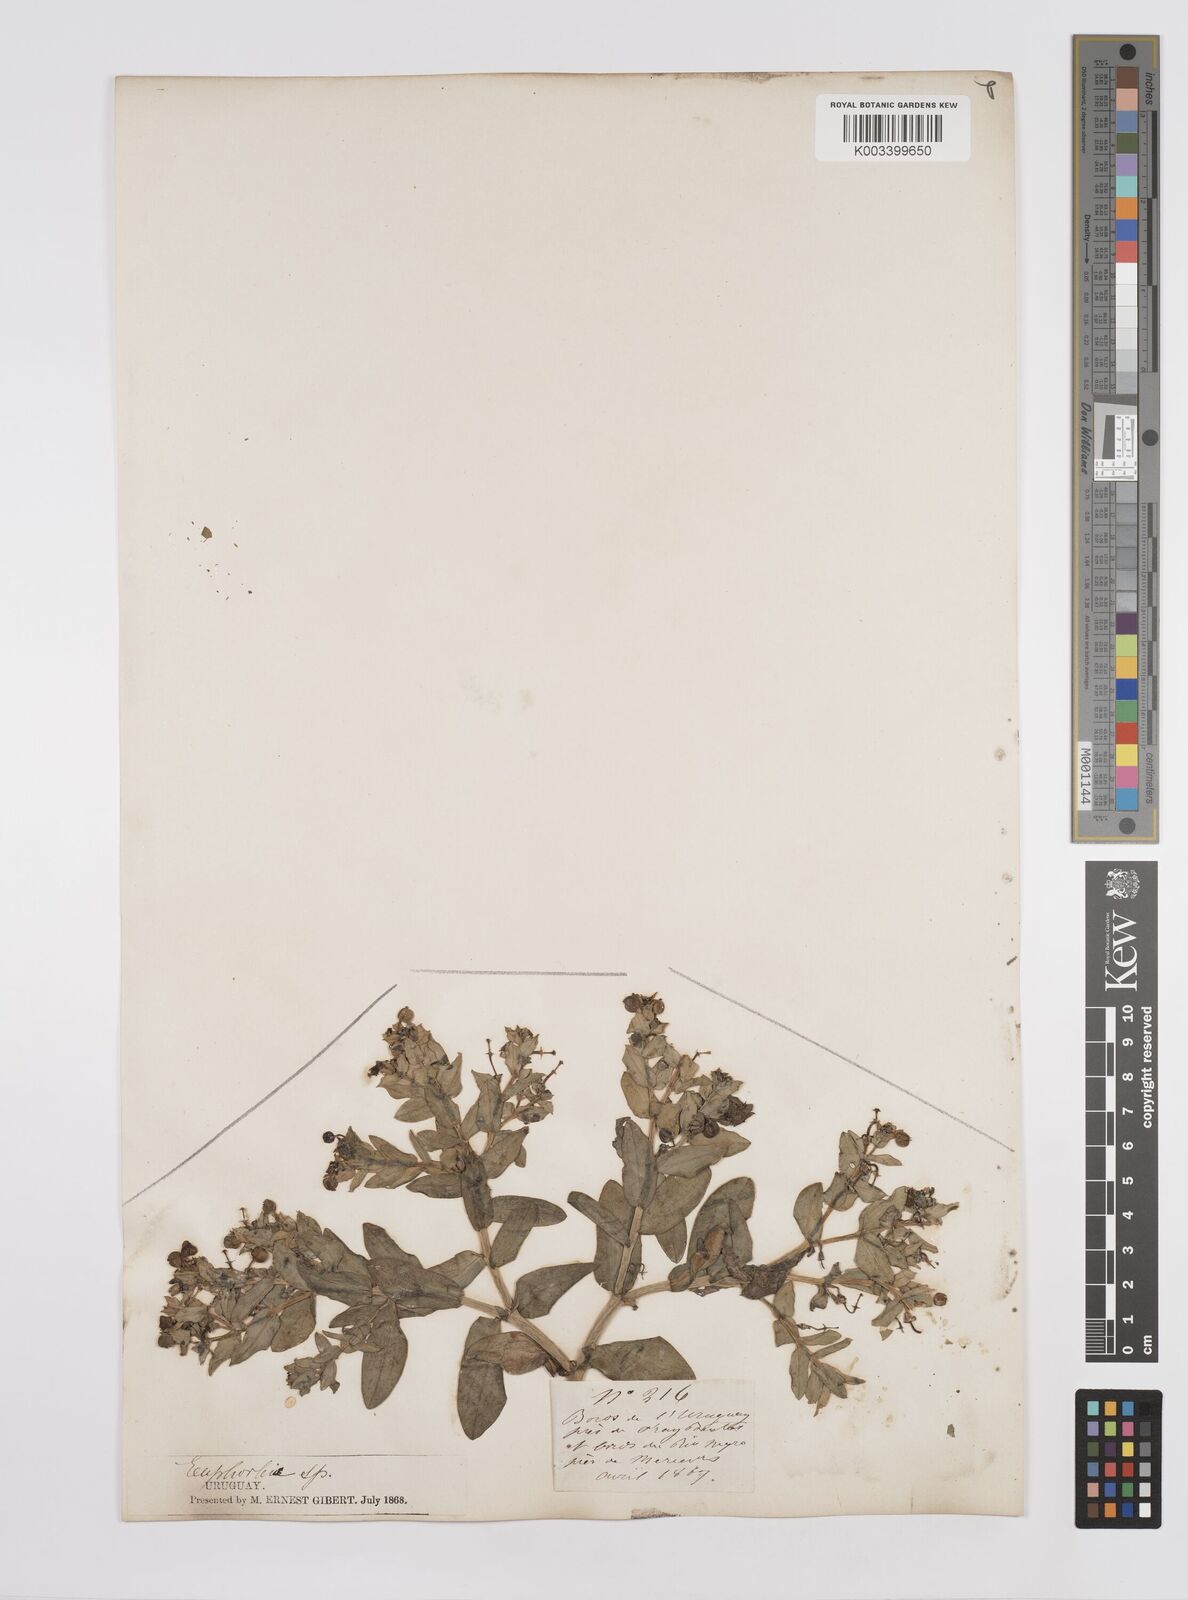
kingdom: Plantae
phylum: Tracheophyta
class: Magnoliopsida
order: Malpighiales
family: Euphorbiaceae
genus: Euphorbia
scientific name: Euphorbia portulacoides
